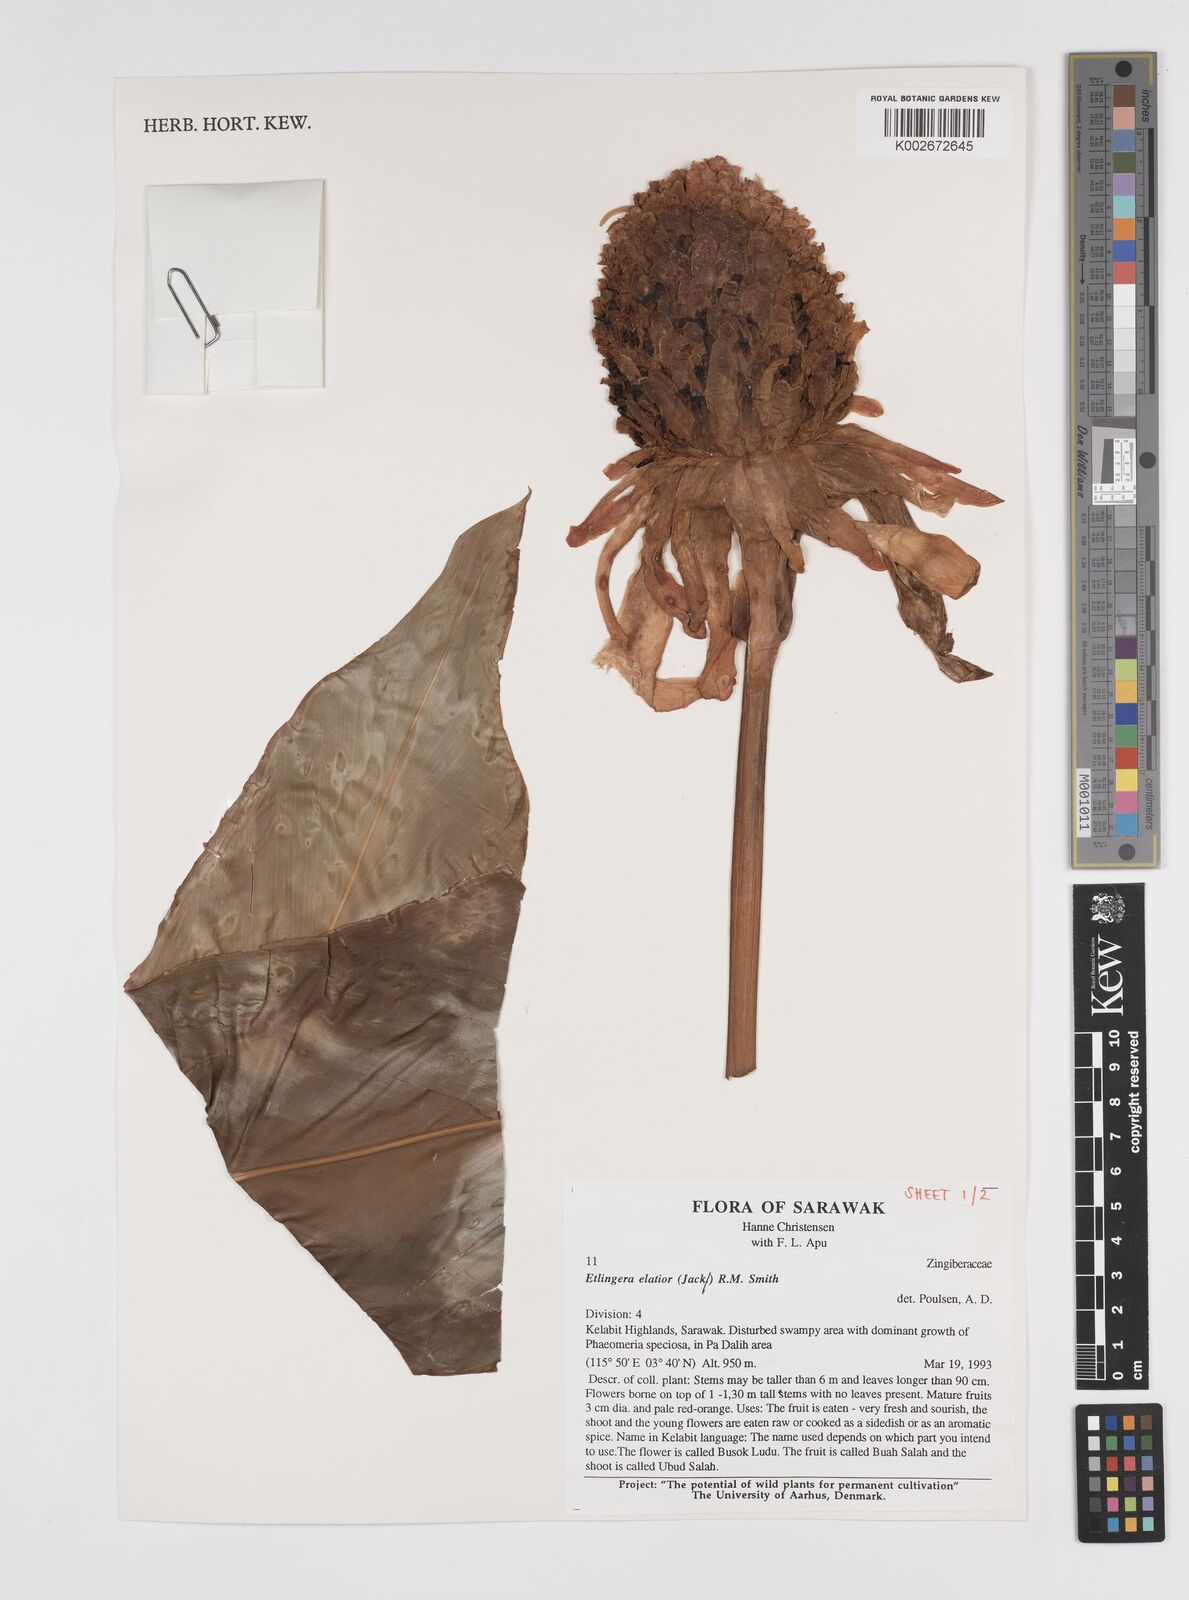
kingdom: Plantae
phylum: Tracheophyta
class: Liliopsida
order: Zingiberales
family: Zingiberaceae
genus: Etlingera
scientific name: Etlingera elatior
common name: Philippine waxflower
